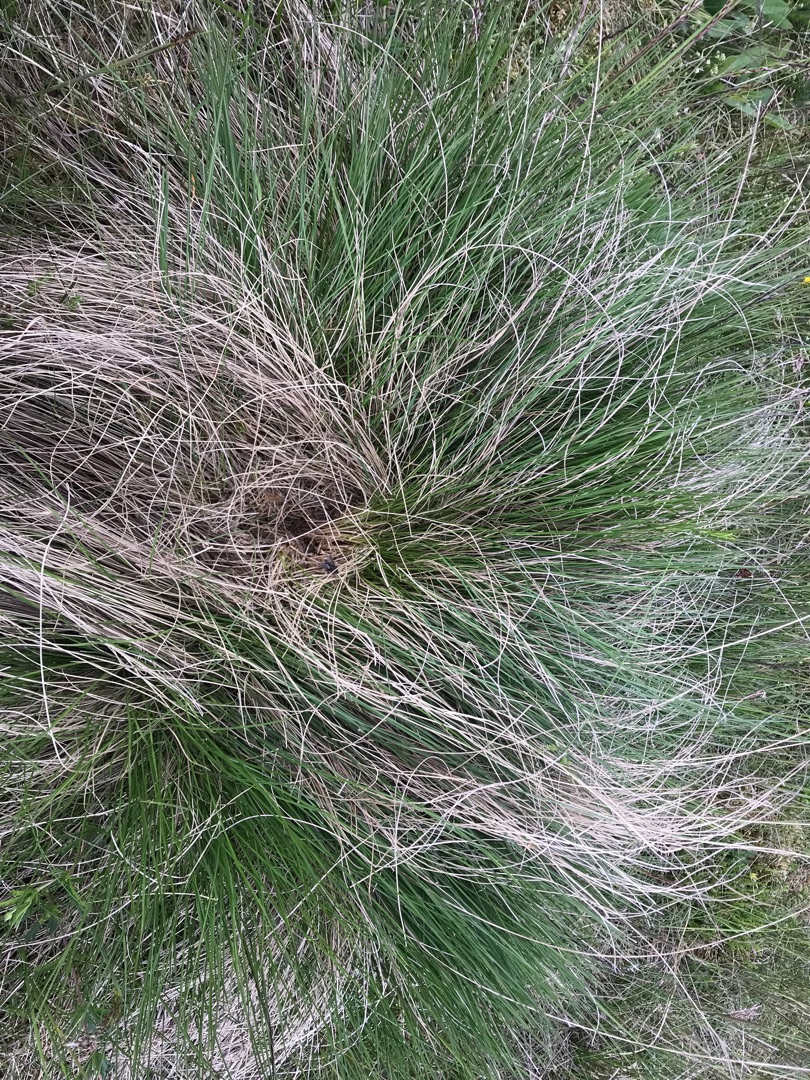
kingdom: Plantae
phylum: Tracheophyta
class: Liliopsida
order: Poales
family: Poaceae
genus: Nardus
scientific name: Nardus stricta
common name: Katteskæg
